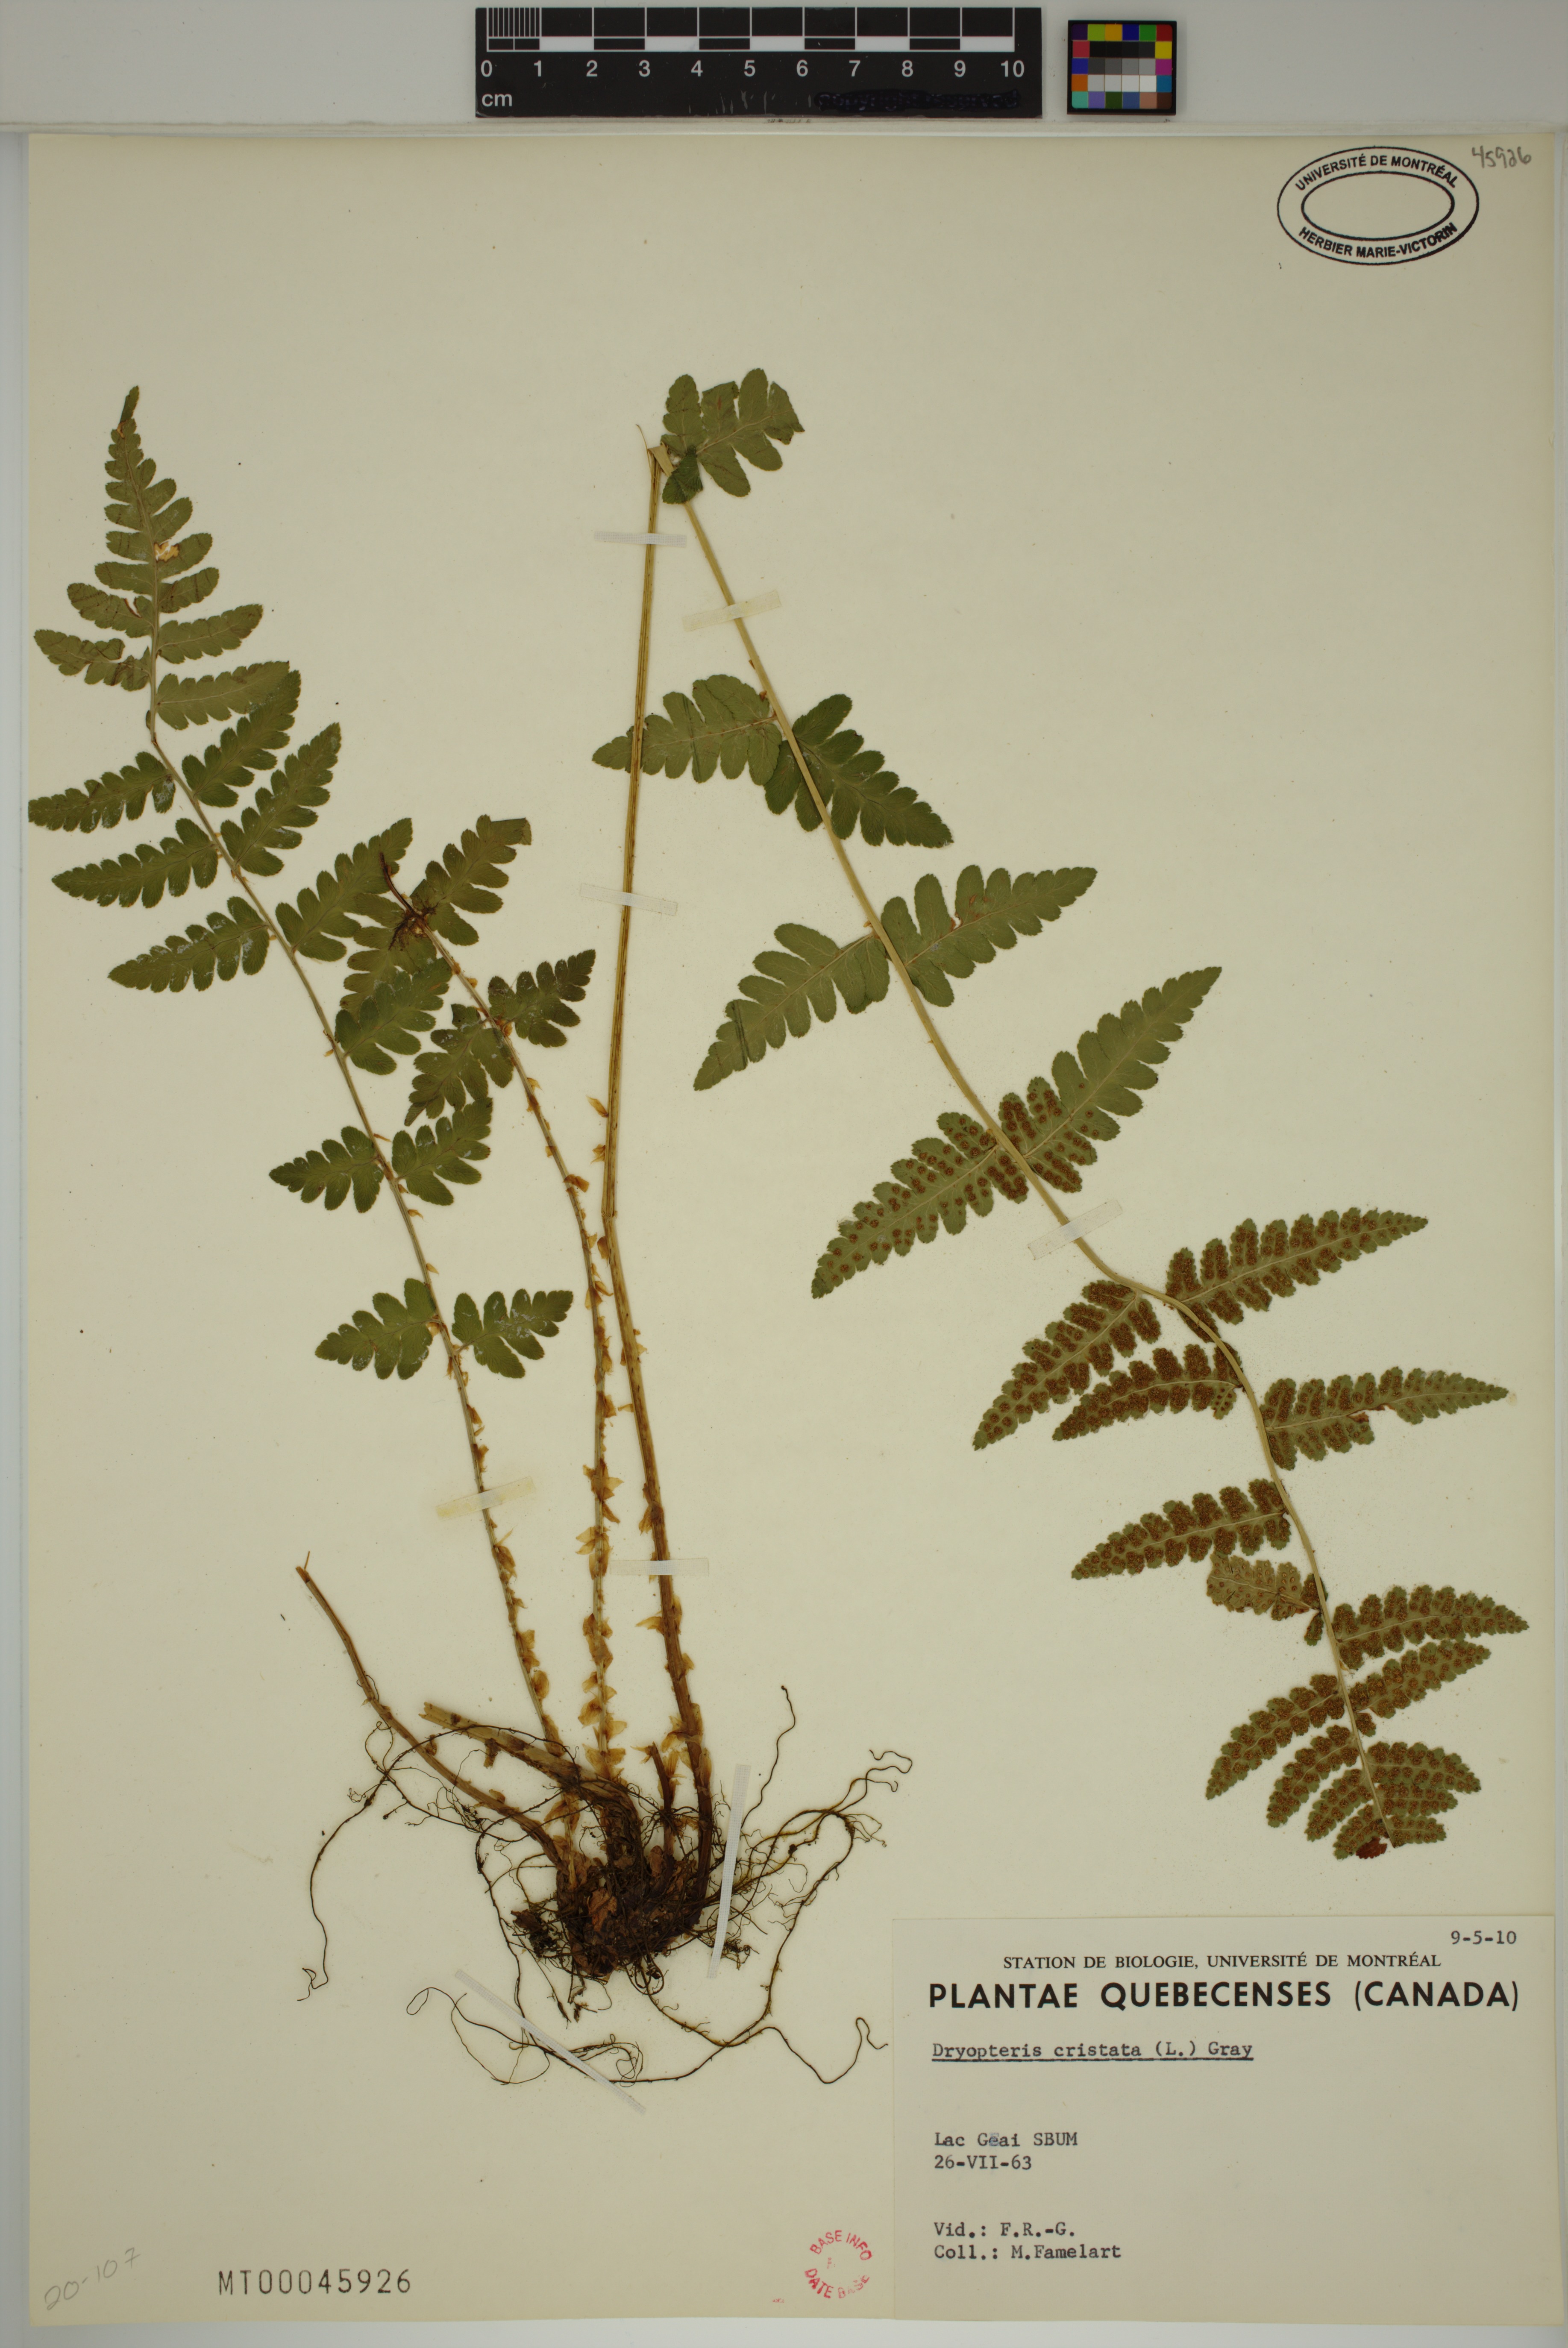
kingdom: Plantae
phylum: Tracheophyta
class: Polypodiopsida
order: Polypodiales
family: Dryopteridaceae
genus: Dryopteris
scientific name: Dryopteris cristata
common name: Crested wood fern
